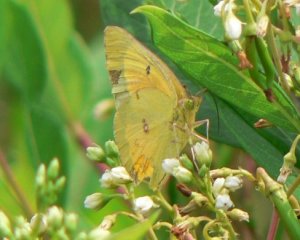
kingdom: Animalia
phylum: Arthropoda
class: Insecta
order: Lepidoptera
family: Pieridae
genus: Colias
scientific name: Colias eurytheme
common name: Orange Sulphur
